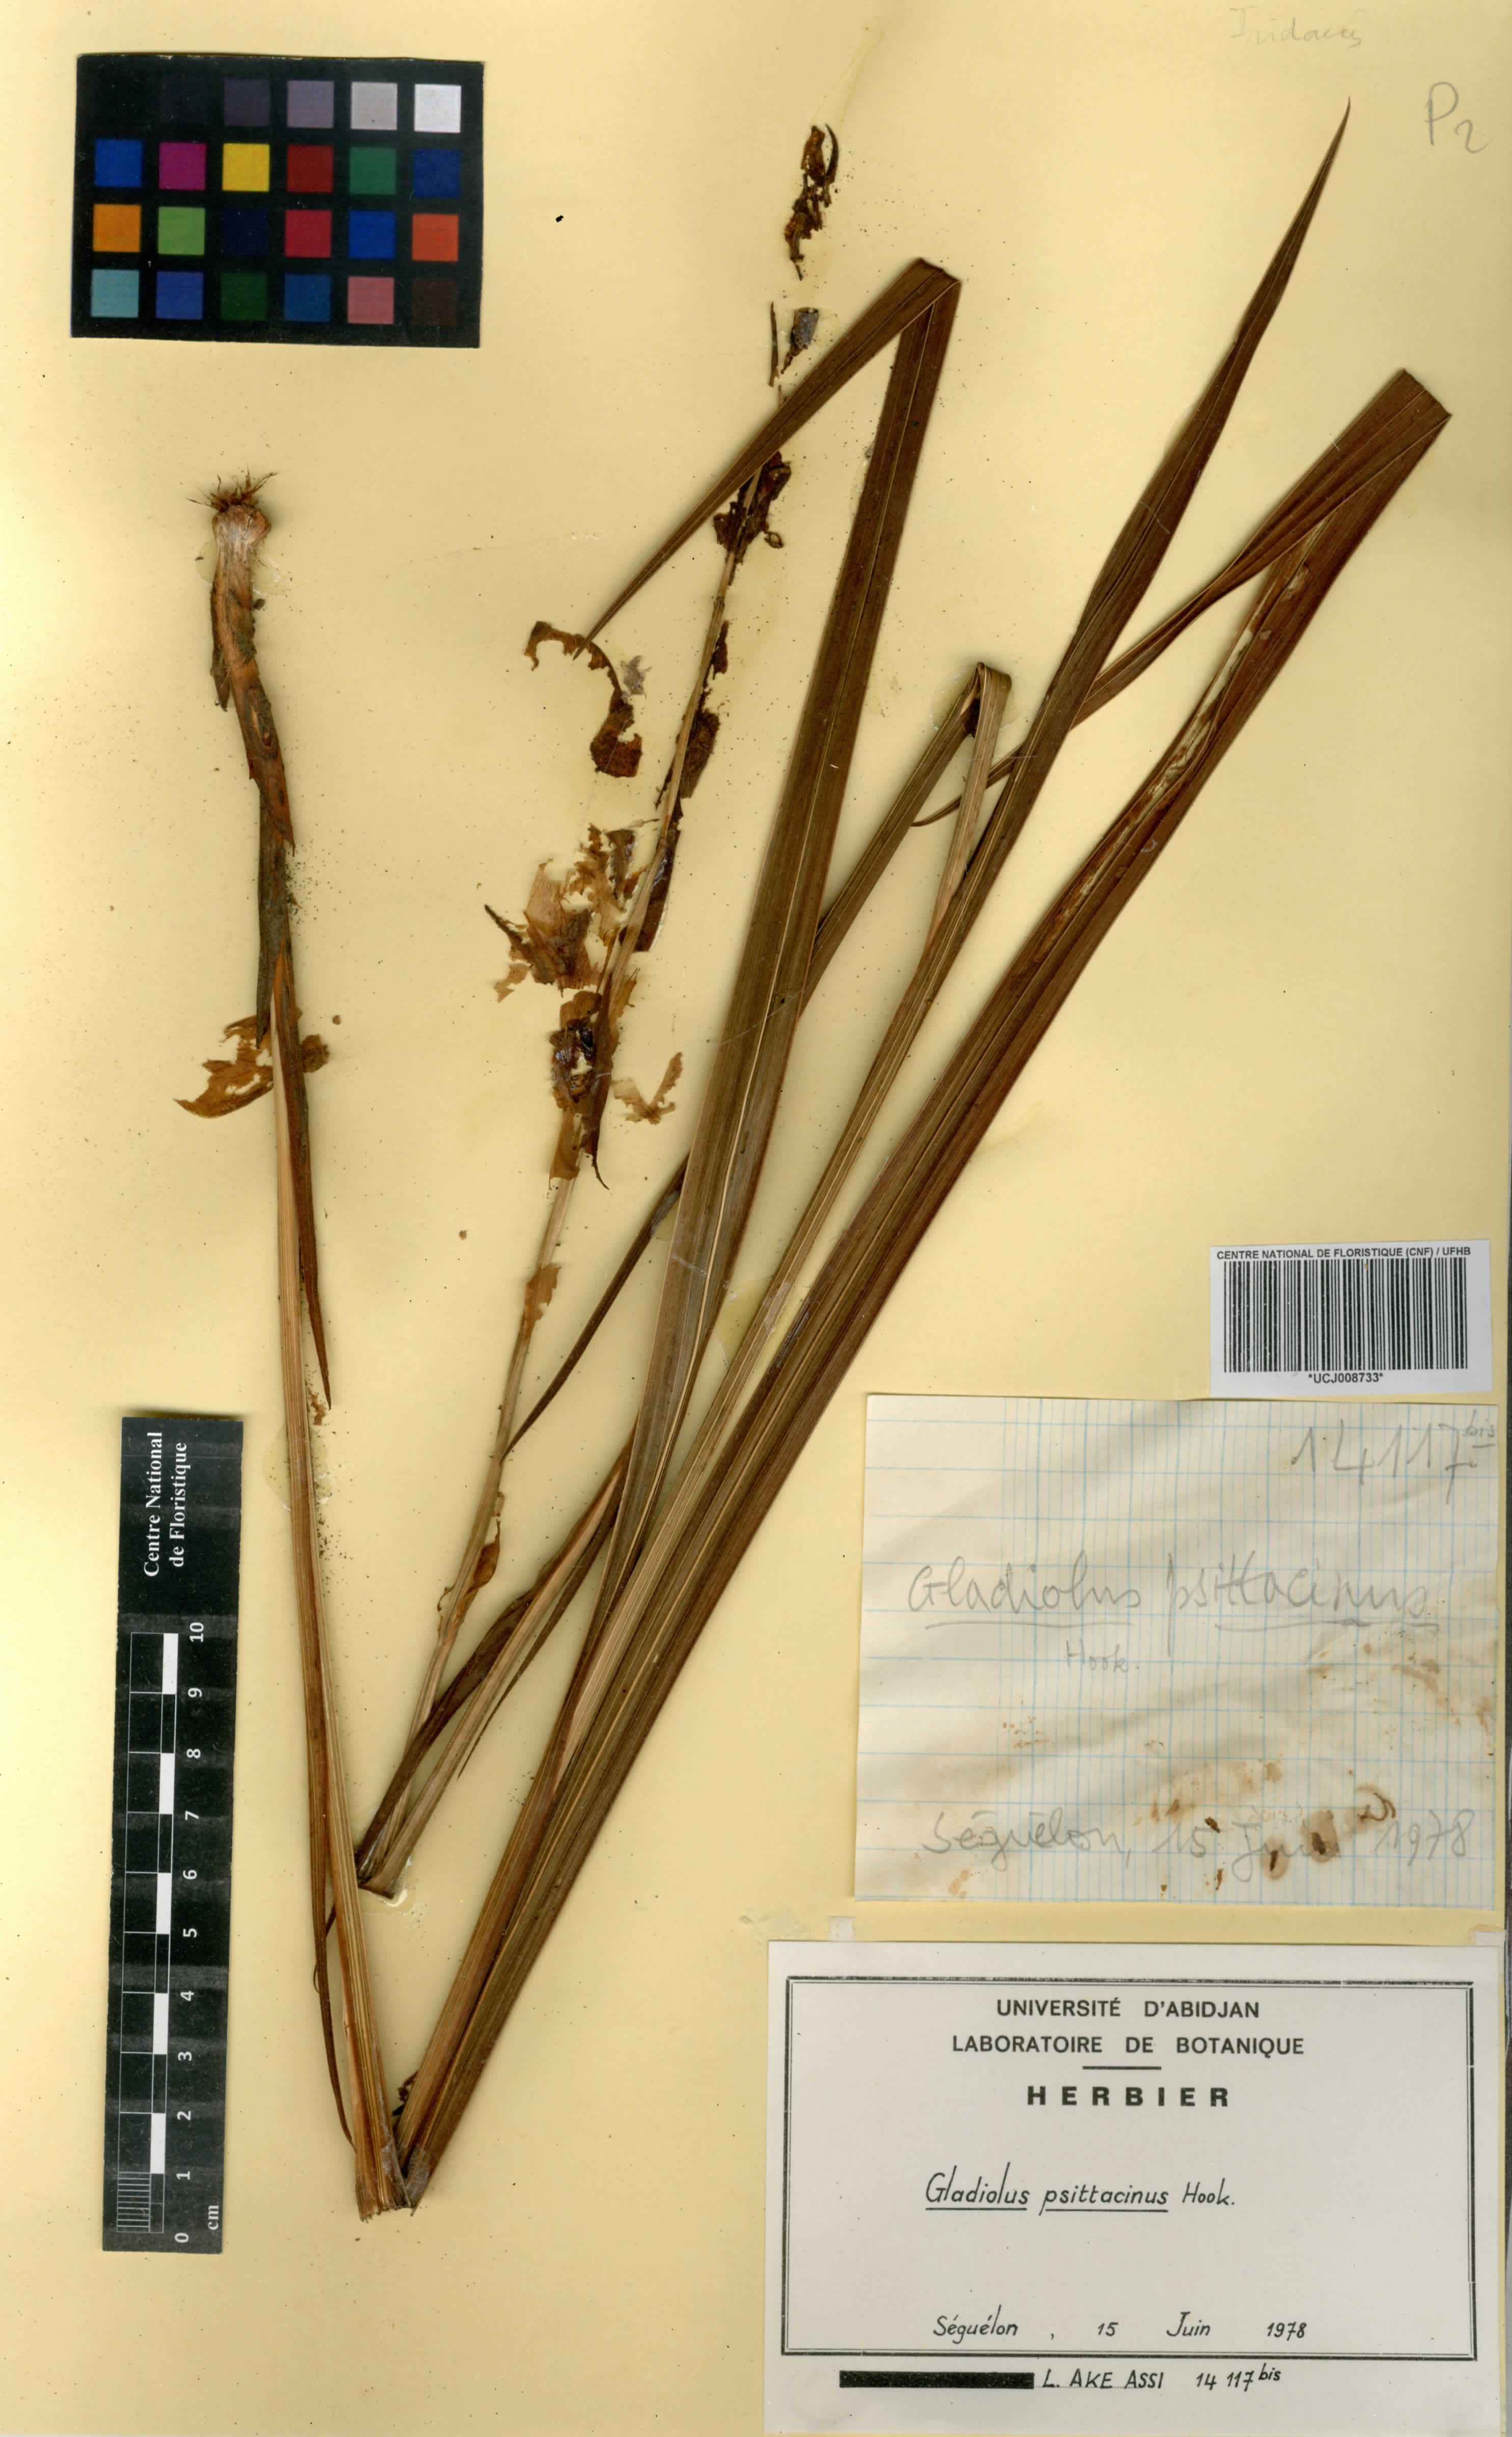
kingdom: Plantae
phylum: Tracheophyta
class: Liliopsida
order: Asparagales
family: Iridaceae
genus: Gladiolus
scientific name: Gladiolus dalenii
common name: Cornflag
